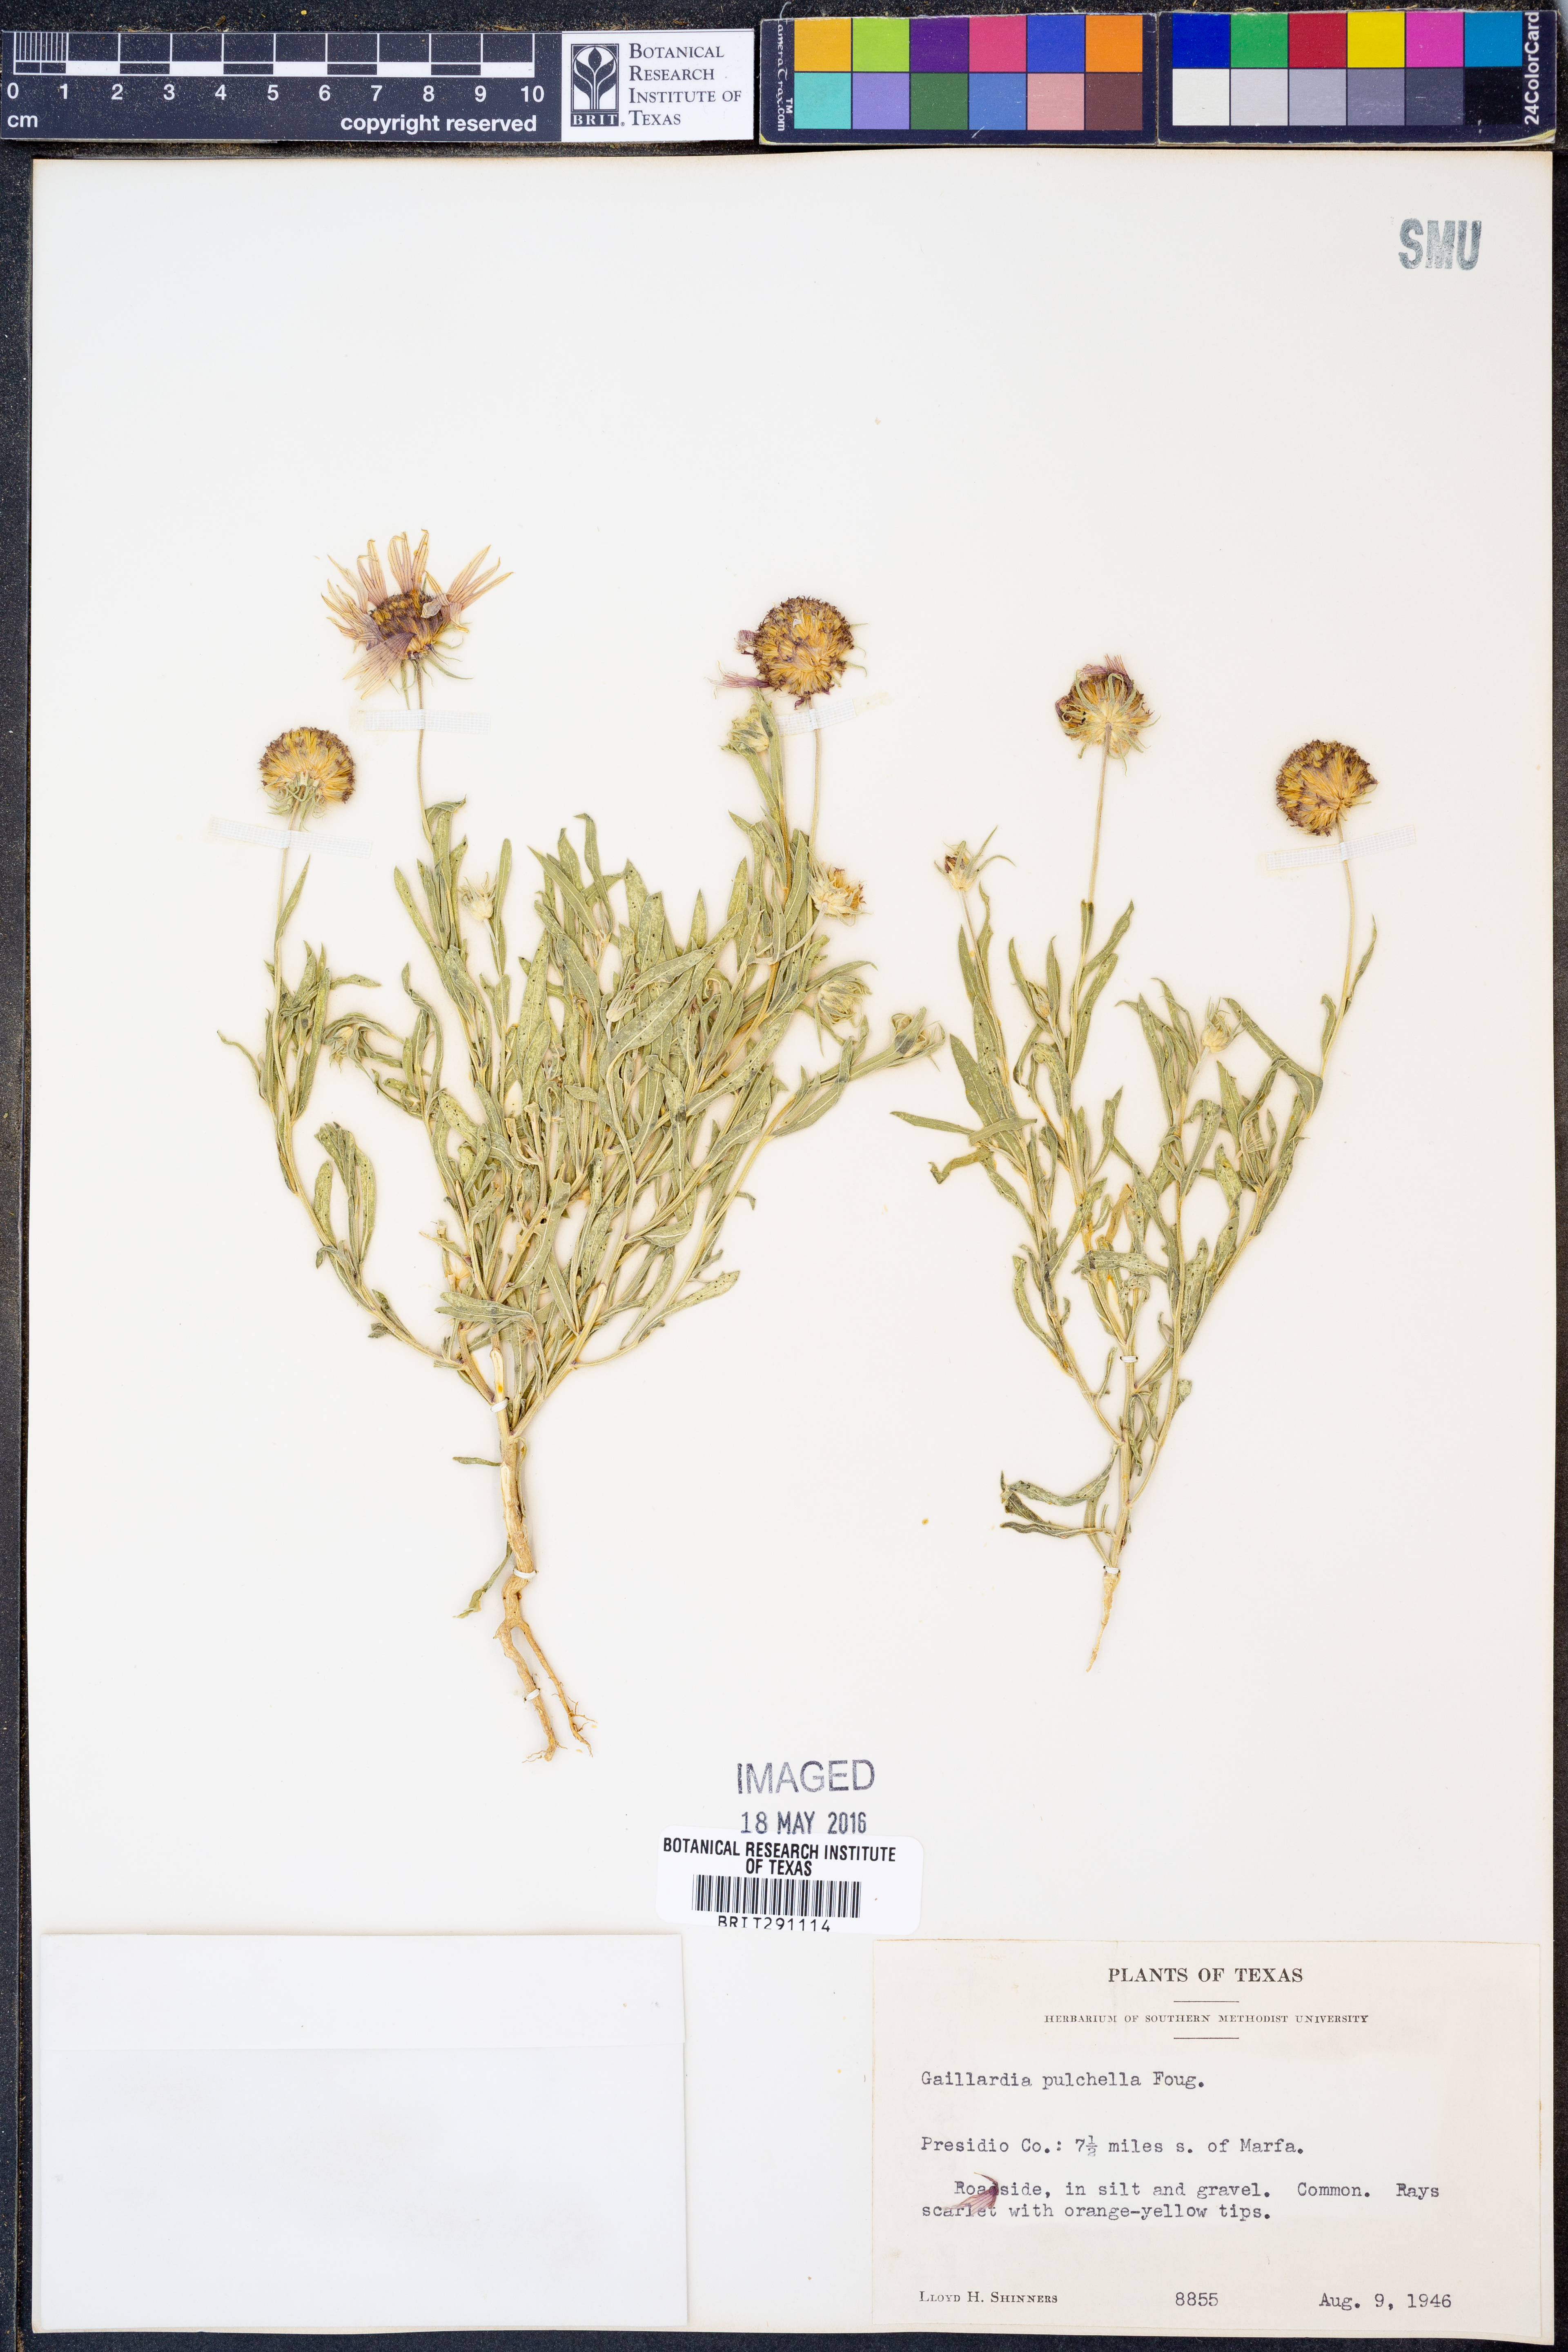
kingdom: Plantae
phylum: Tracheophyta
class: Magnoliopsida
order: Asterales
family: Asteraceae
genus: Gaillardia
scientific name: Gaillardia pulchella
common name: Firewheel
